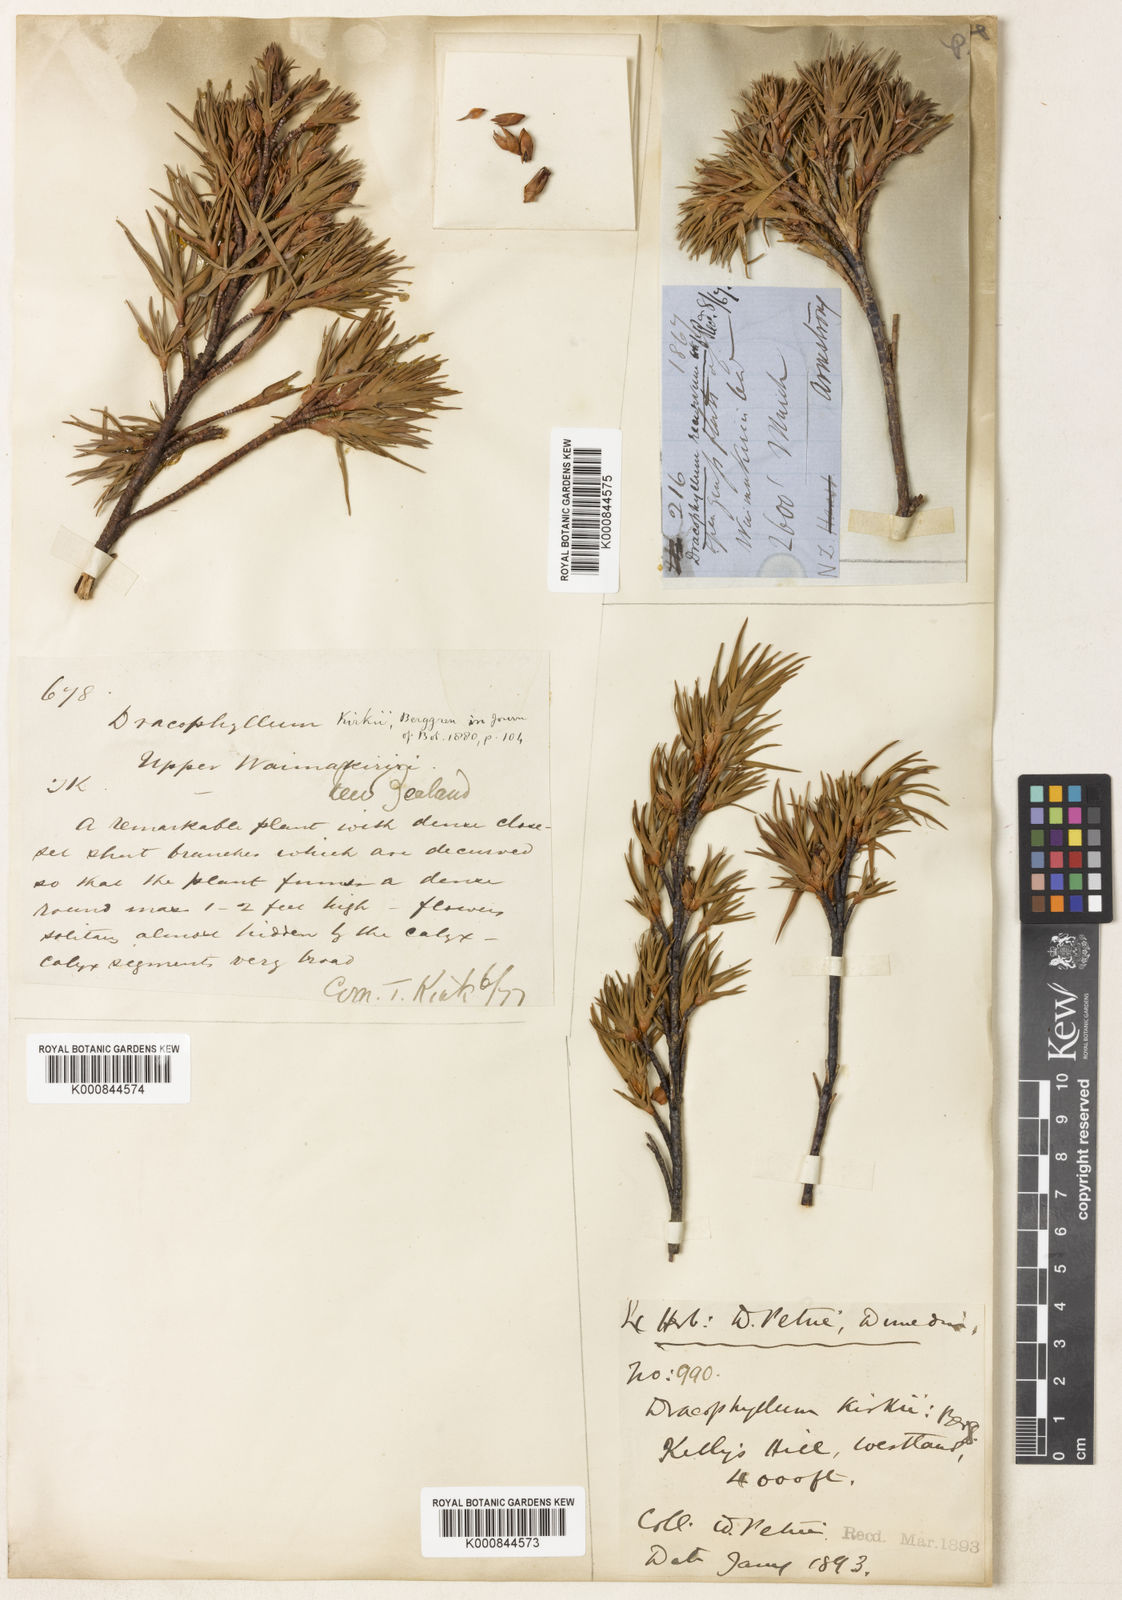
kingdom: Plantae
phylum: Tracheophyta
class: Magnoliopsida
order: Ericales
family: Ericaceae
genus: Dracophyllum
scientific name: Dracophyllum kirkii
